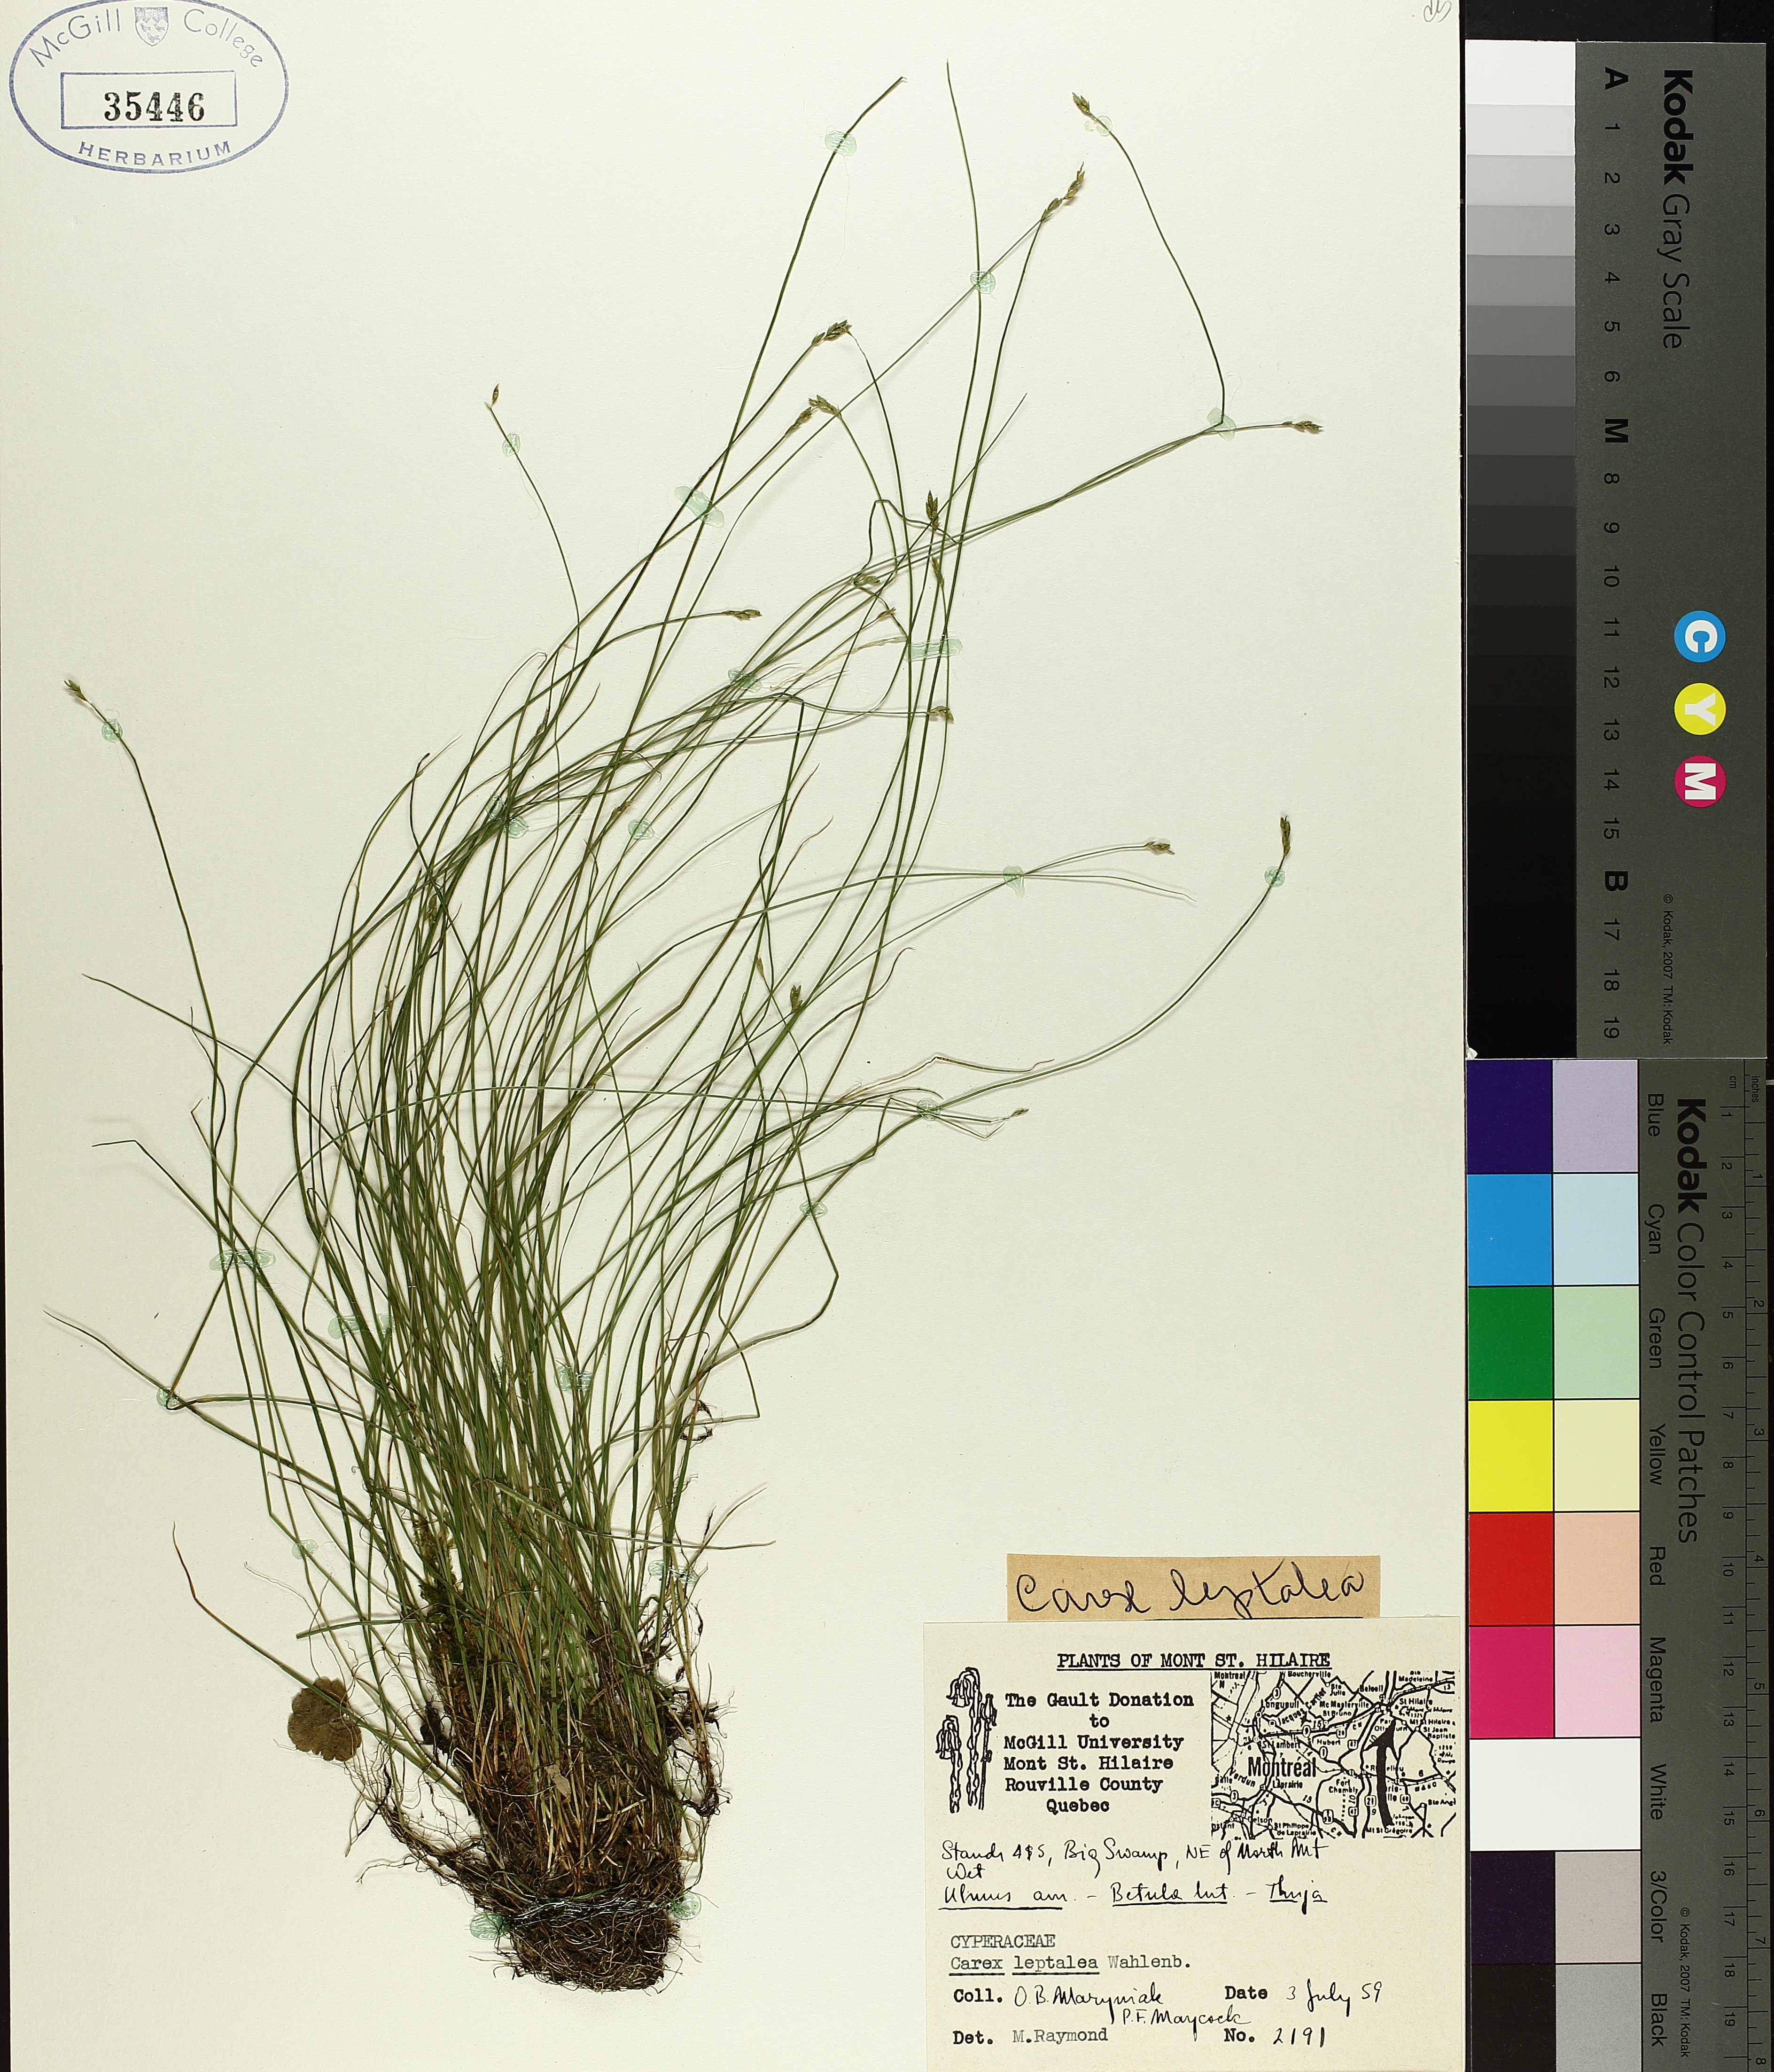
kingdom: Plantae
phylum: Tracheophyta
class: Liliopsida
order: Poales
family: Cyperaceae
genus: Carex
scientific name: Carex leptalea
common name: Bristly-stalked sedge
